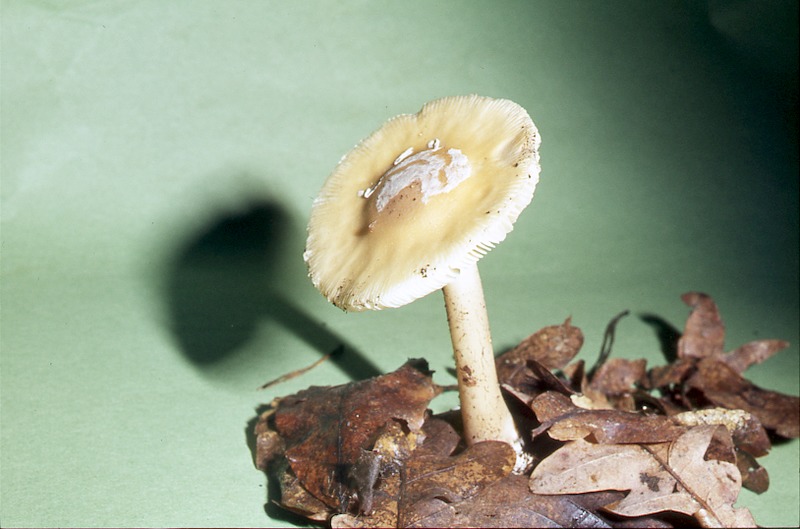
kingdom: Fungi
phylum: Basidiomycota
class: Agaricomycetes
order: Agaricales
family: Amanitaceae
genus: Amanita
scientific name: Amanita gemmata
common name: Jewelled amanita
